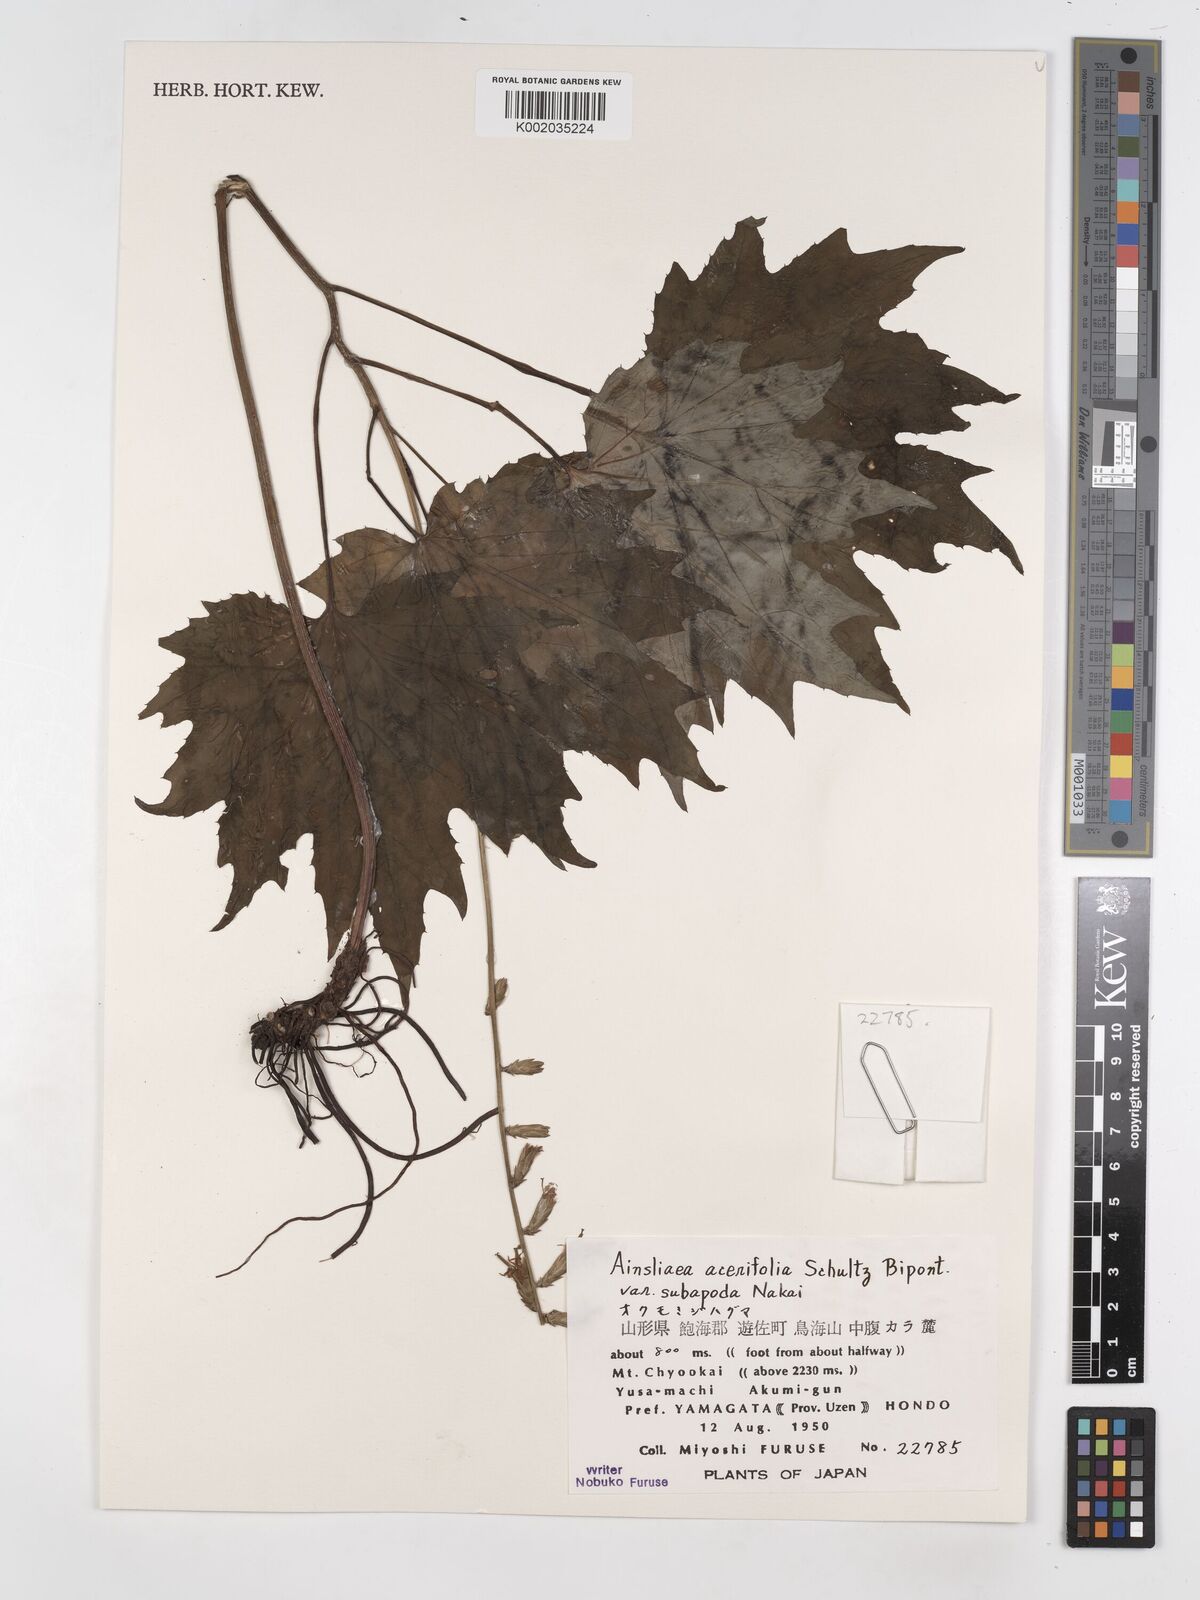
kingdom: Plantae
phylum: Tracheophyta
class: Magnoliopsida
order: Asterales
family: Asteraceae
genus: Ainsliaea
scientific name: Ainsliaea acerifolia
